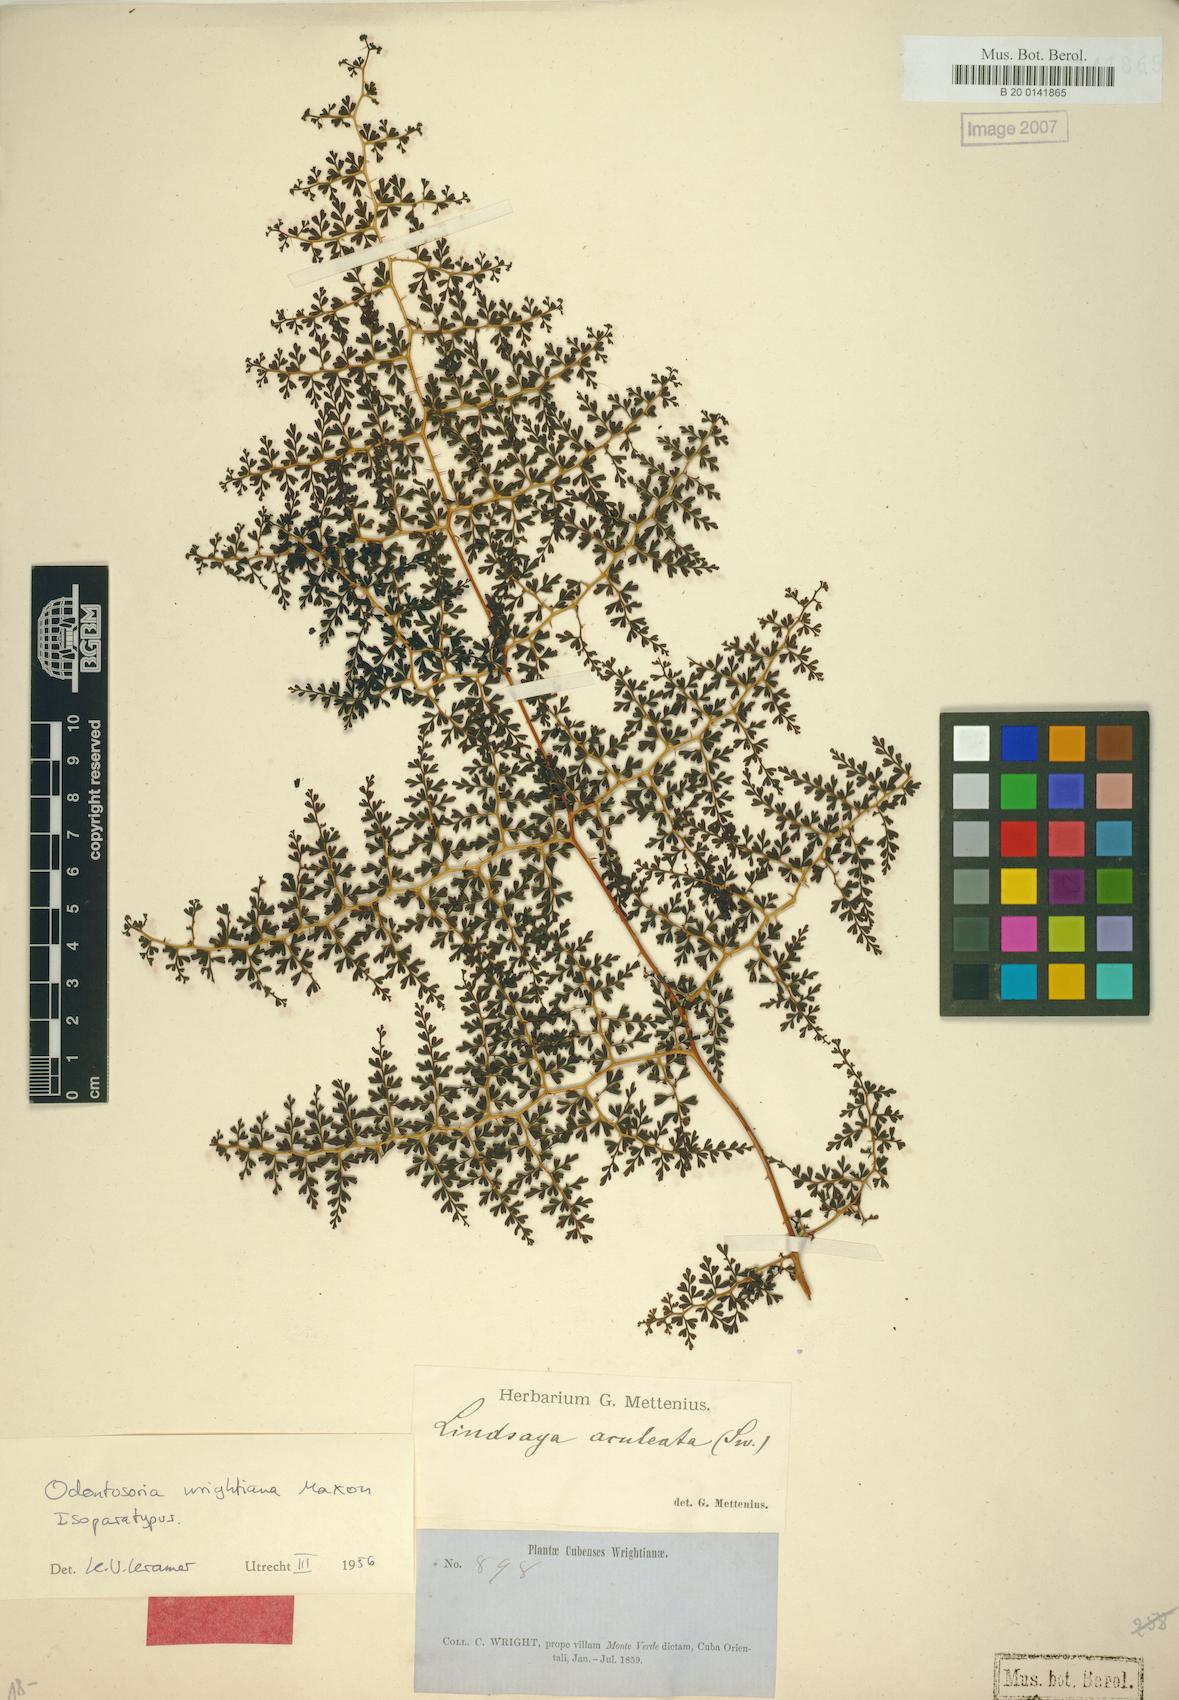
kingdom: Plantae
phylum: Tracheophyta
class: Polypodiopsida
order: Polypodiales
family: Lindsaeaceae
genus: Odontosoria
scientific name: Odontosoria wrightiana
